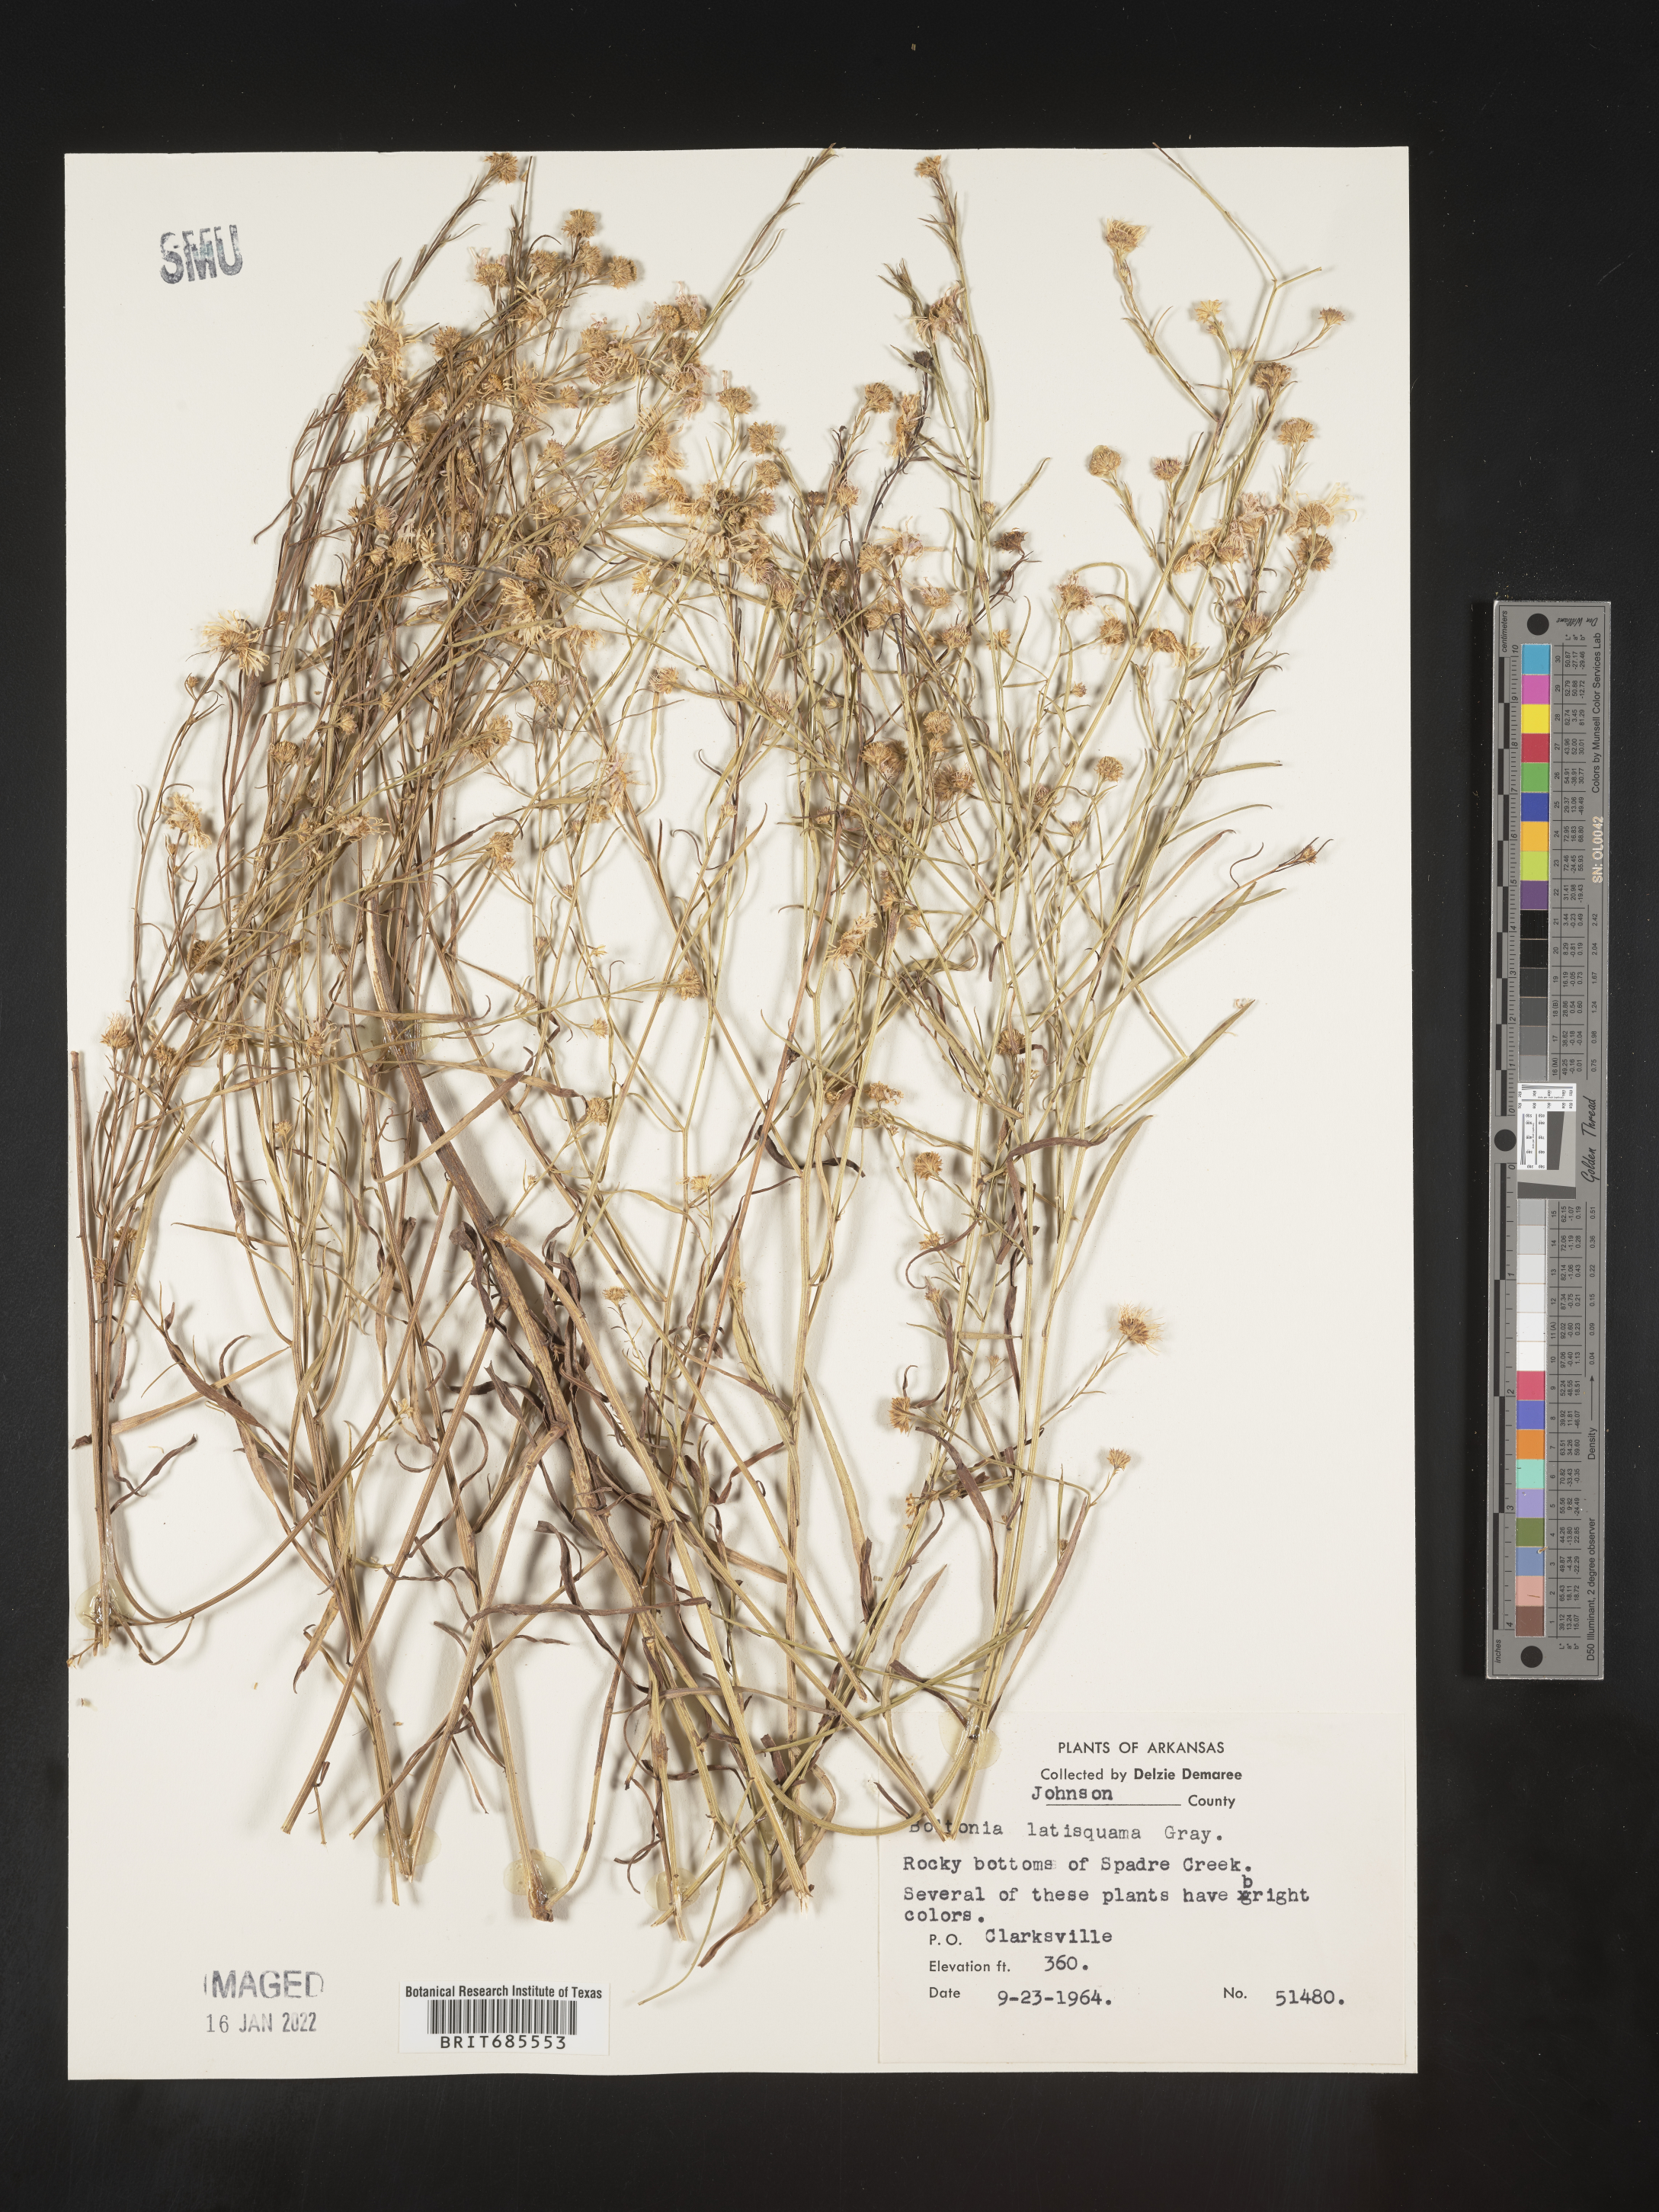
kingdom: Plantae
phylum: Tracheophyta
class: Magnoliopsida
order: Asterales
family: Asteraceae
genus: Boltonia
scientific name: Boltonia
